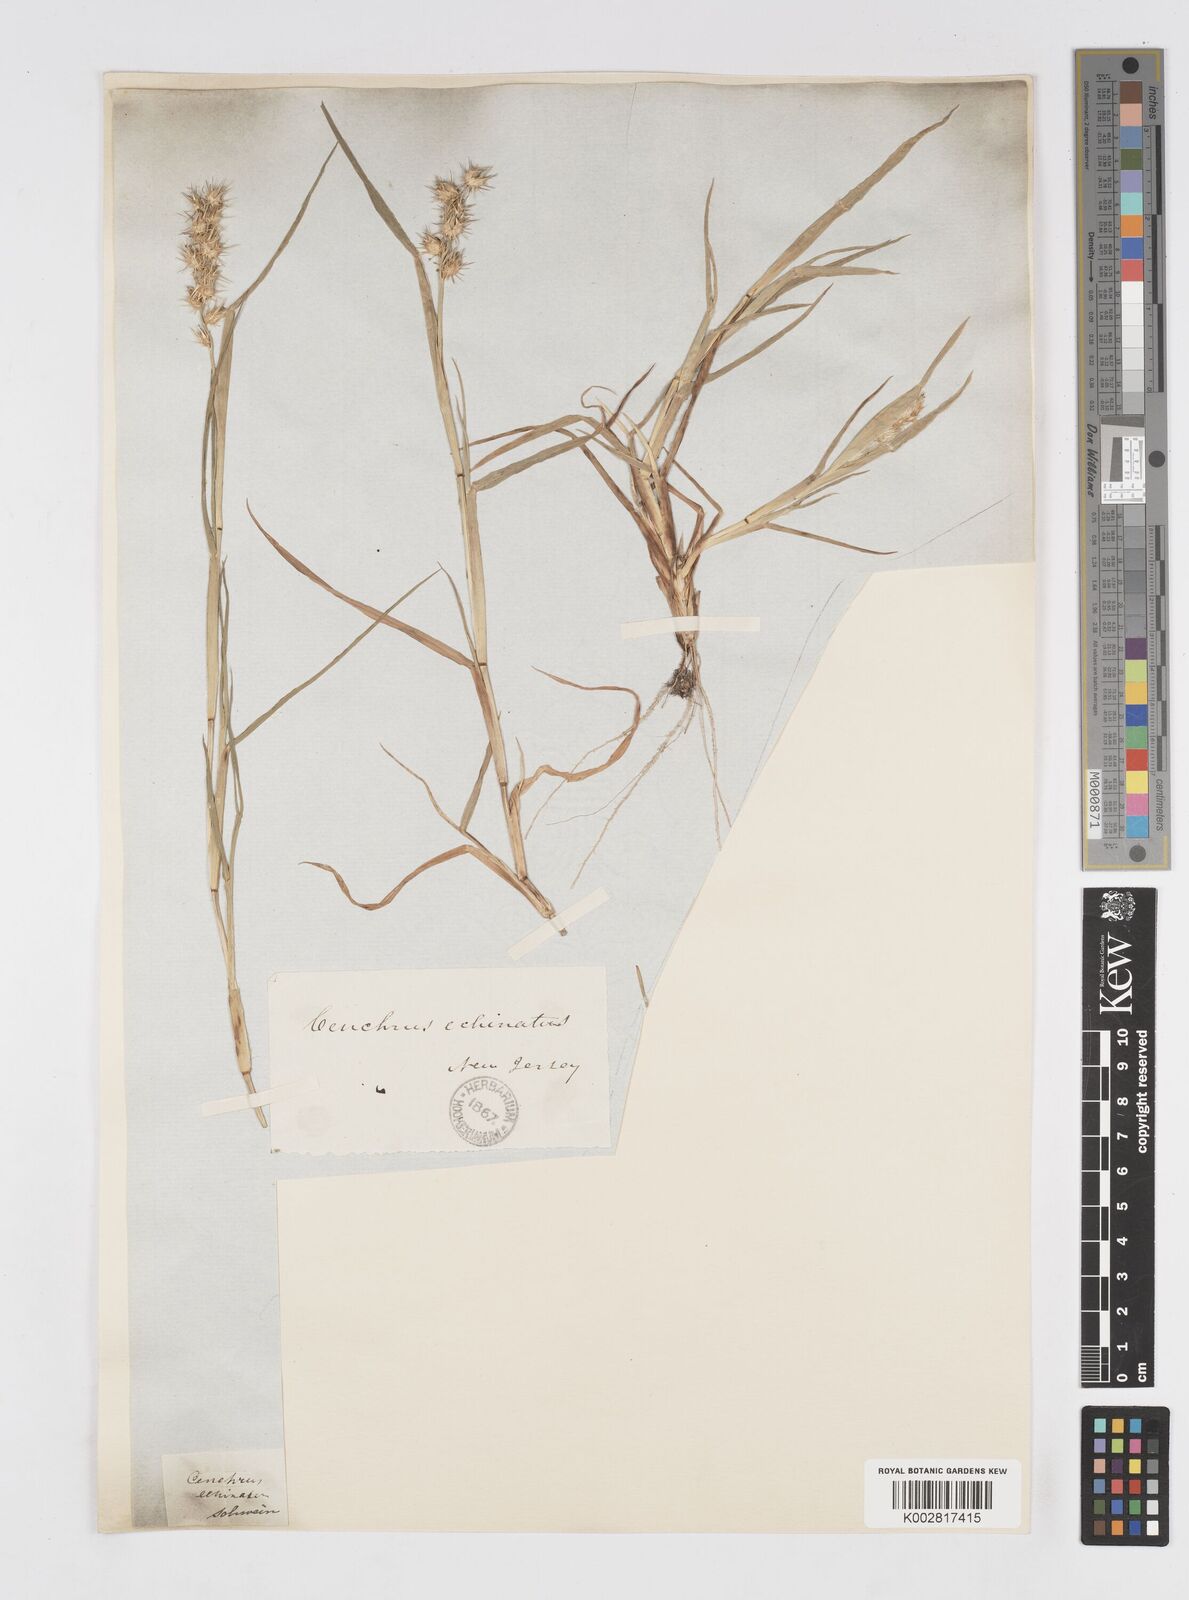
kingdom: Plantae
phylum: Tracheophyta
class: Liliopsida
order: Poales
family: Poaceae
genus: Cenchrus
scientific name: Cenchrus tribuloides
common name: Dune sandbur
